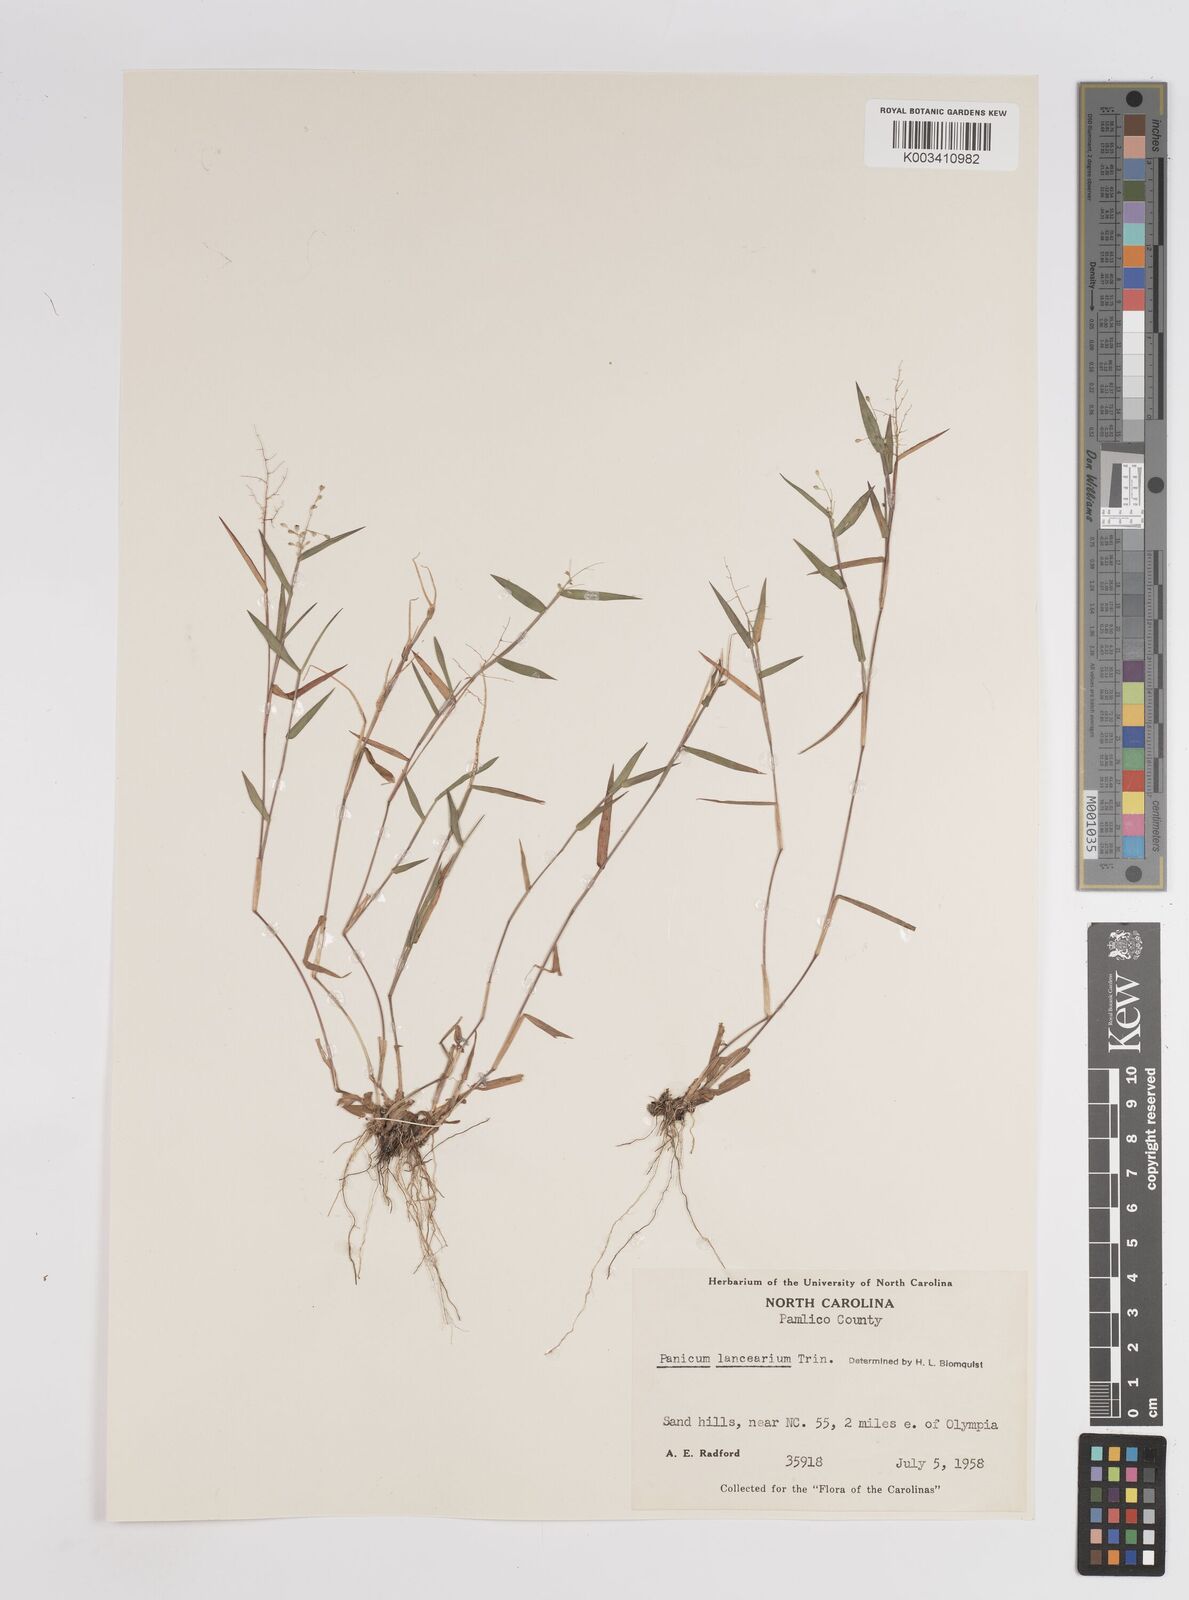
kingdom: Plantae
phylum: Tracheophyta
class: Liliopsida
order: Poales
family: Poaceae
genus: Dichanthelium
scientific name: Dichanthelium portoricense
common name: American panicgrass
